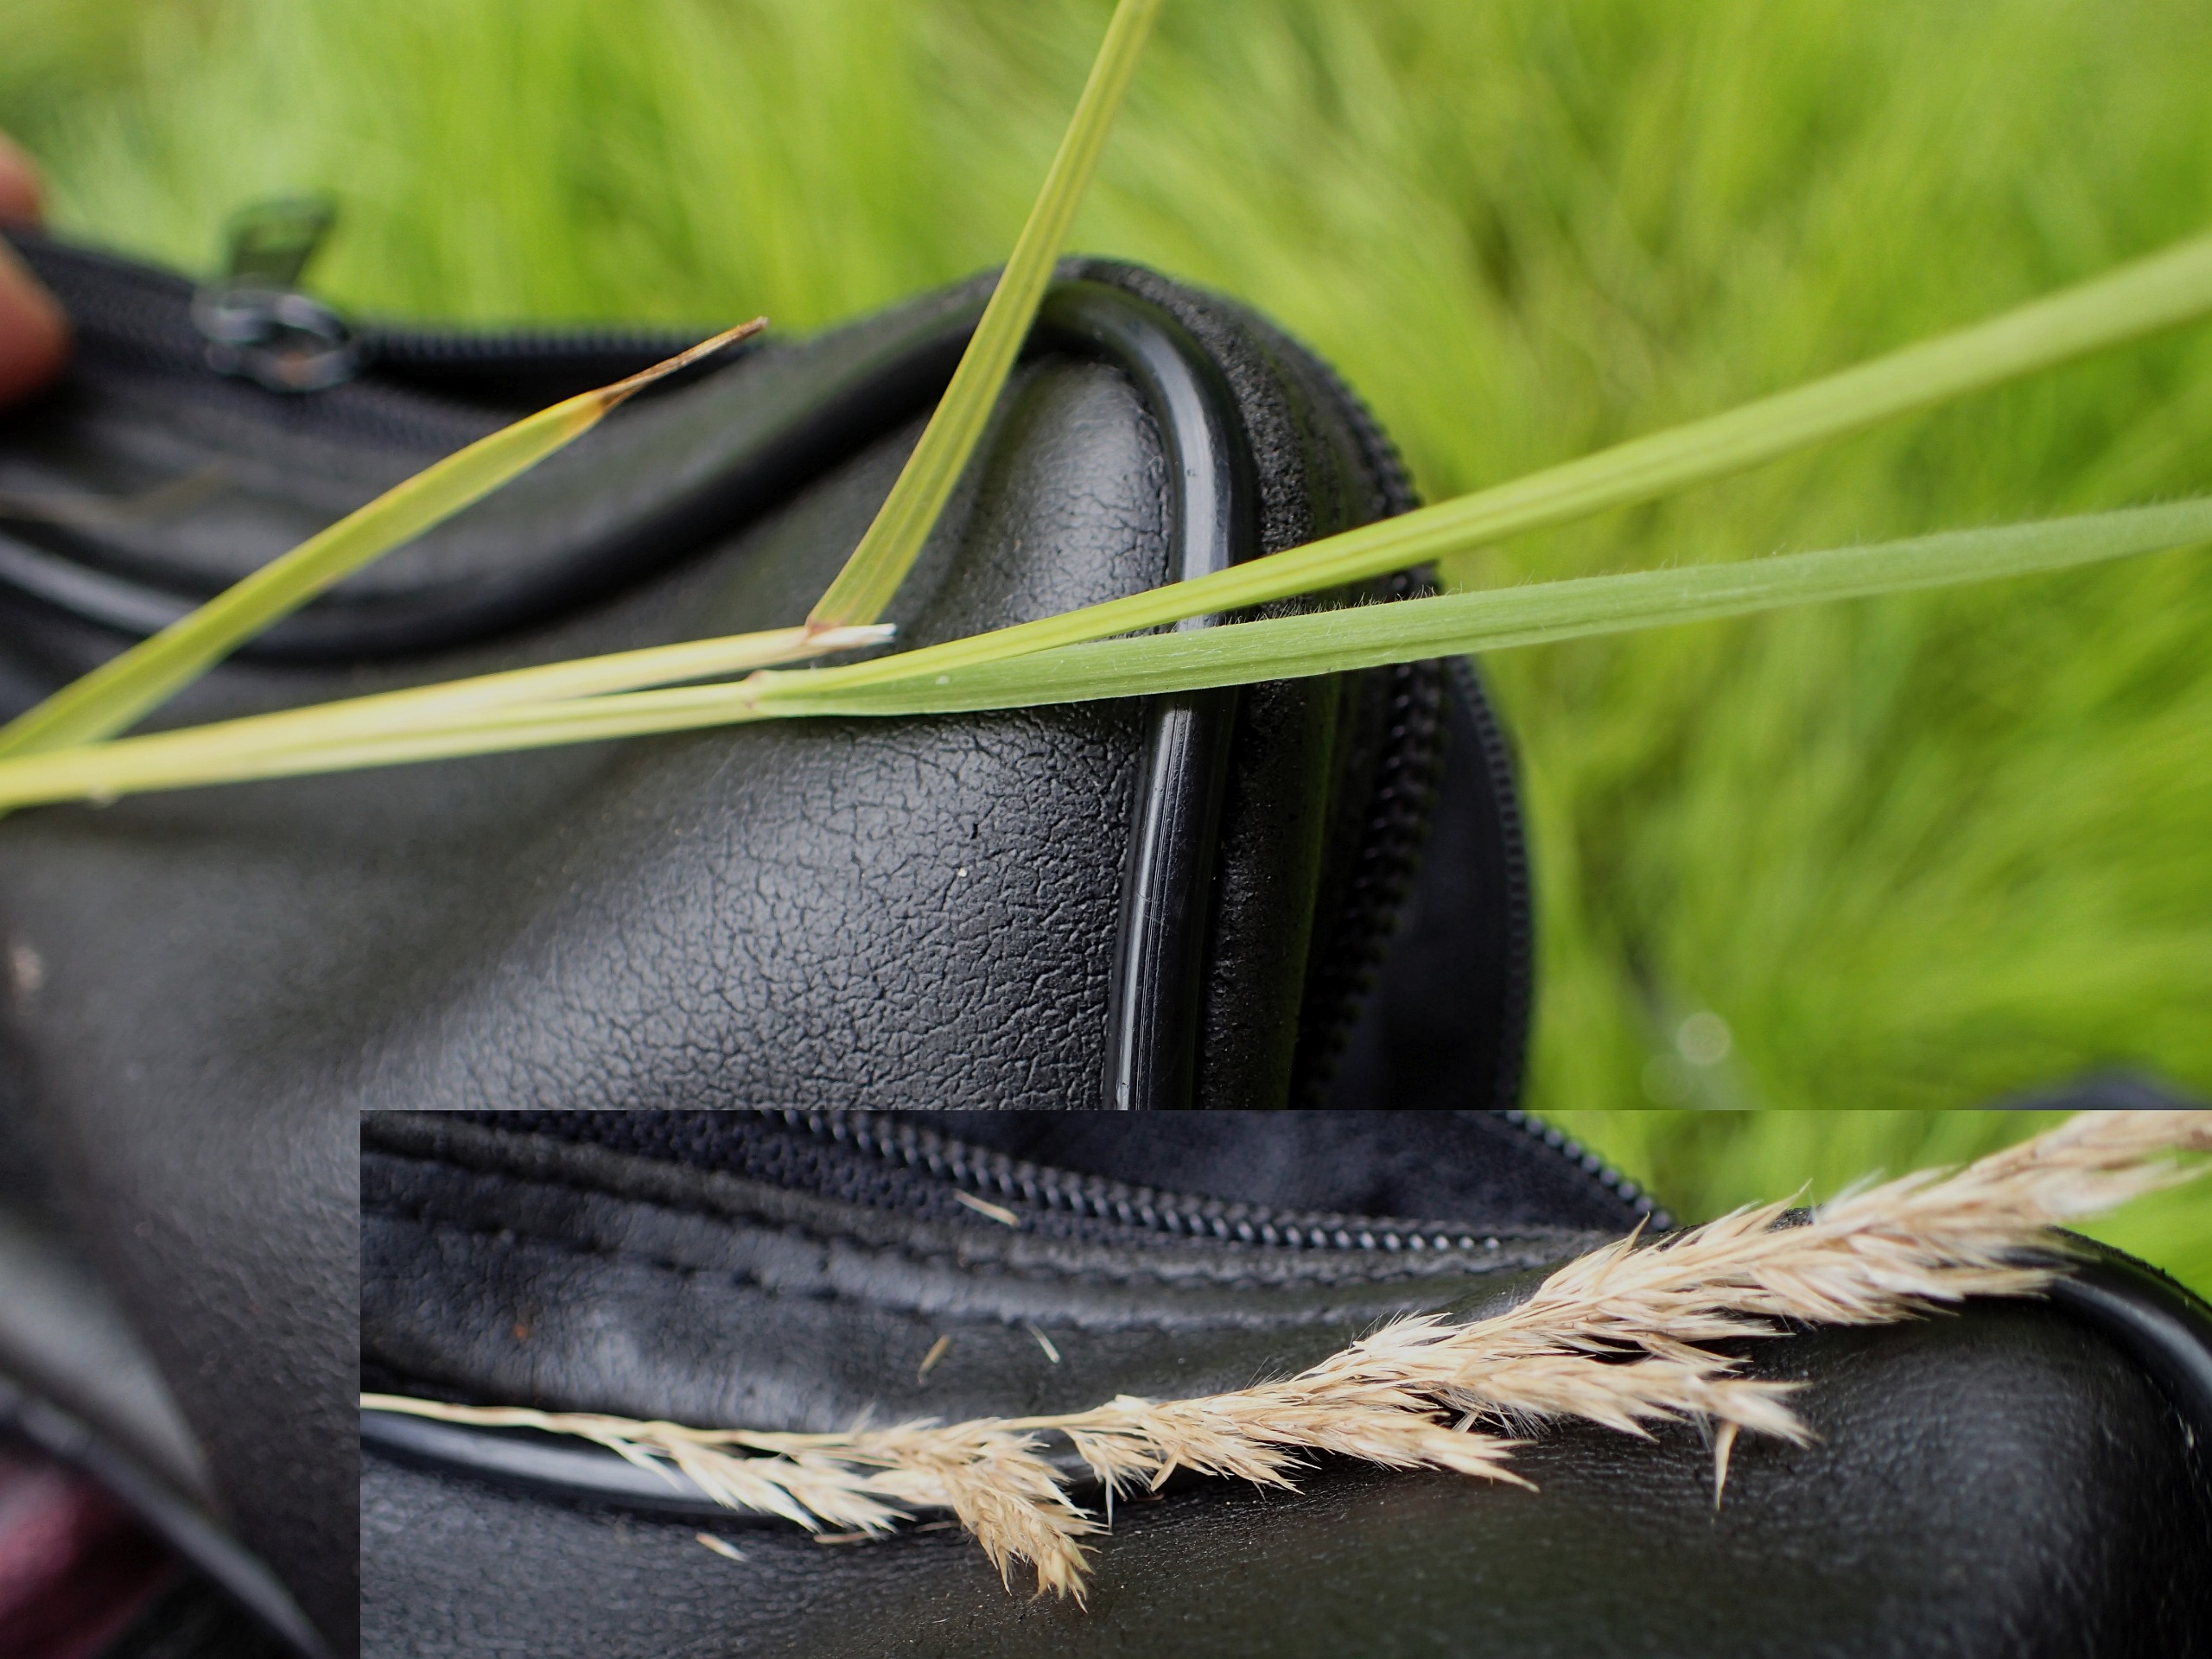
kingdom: Plantae
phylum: Tracheophyta
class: Liliopsida
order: Poales
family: Poaceae
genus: Calamagrostis
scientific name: Calamagrostis canescens
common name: Eng-rørhvene
